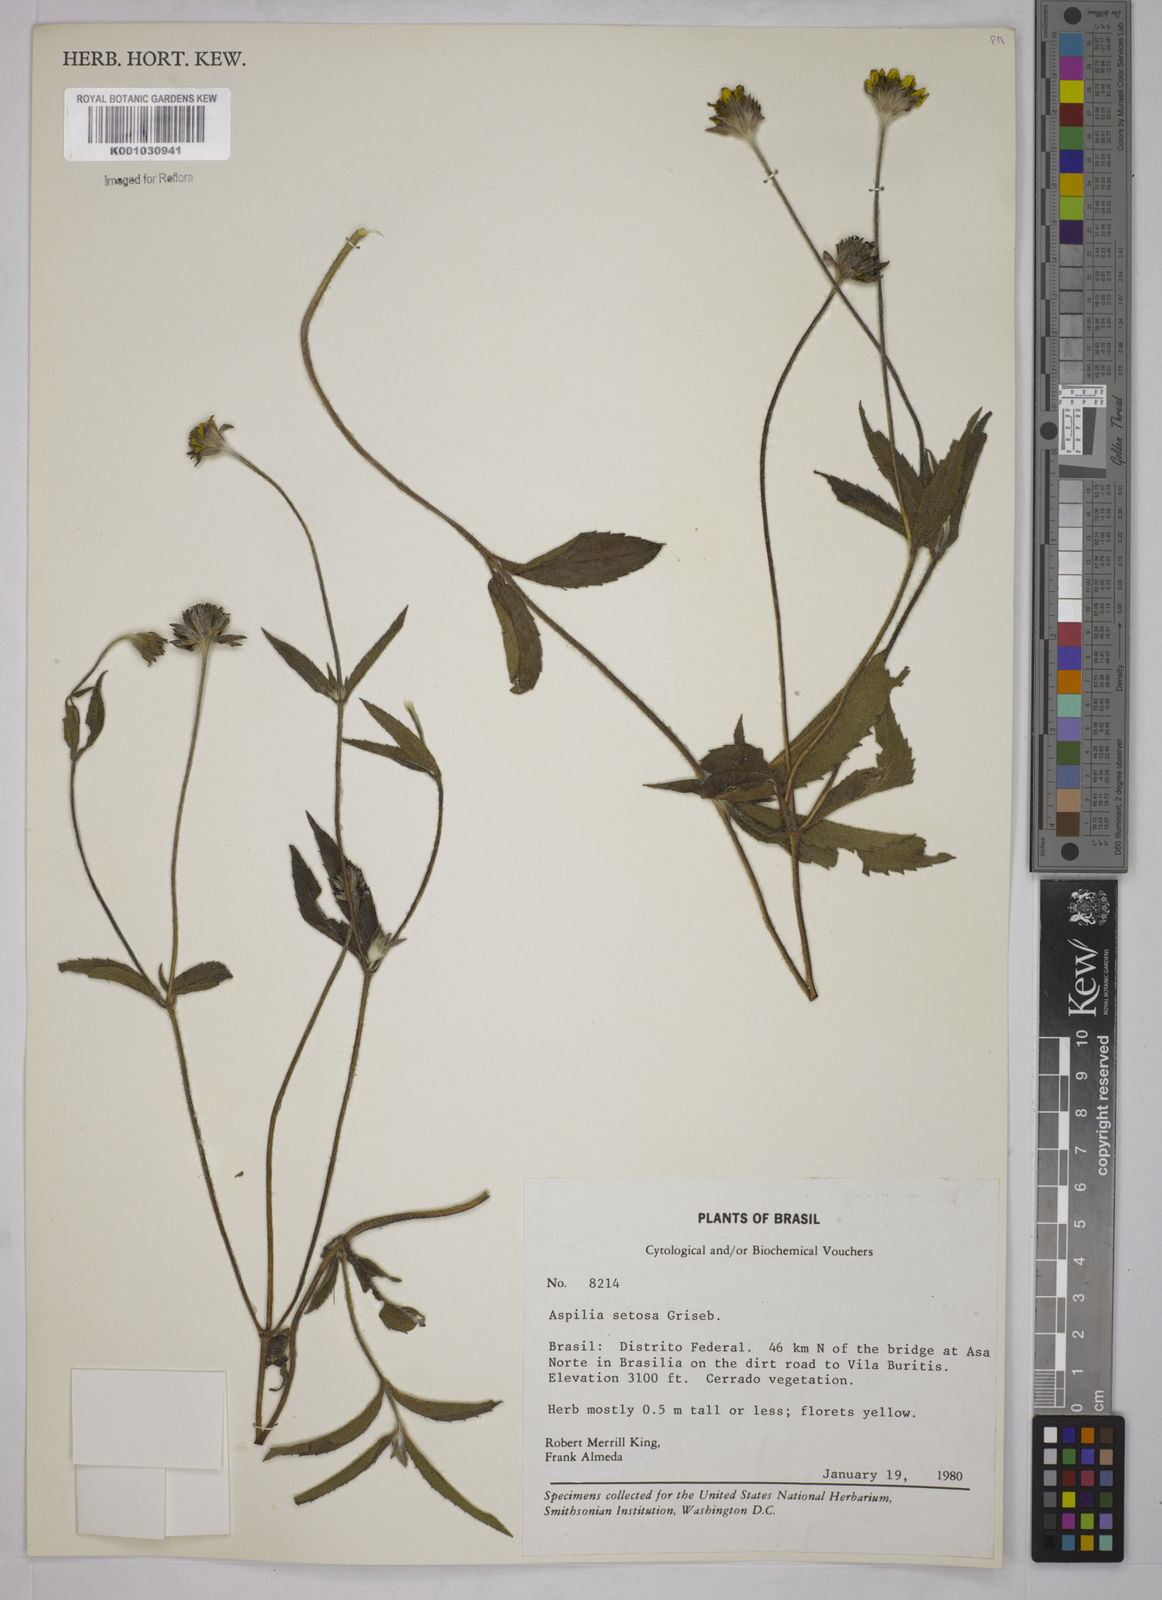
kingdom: Plantae
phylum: Tracheophyta
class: Magnoliopsida
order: Asterales
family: Asteraceae
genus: Aspilia
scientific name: Aspilia
